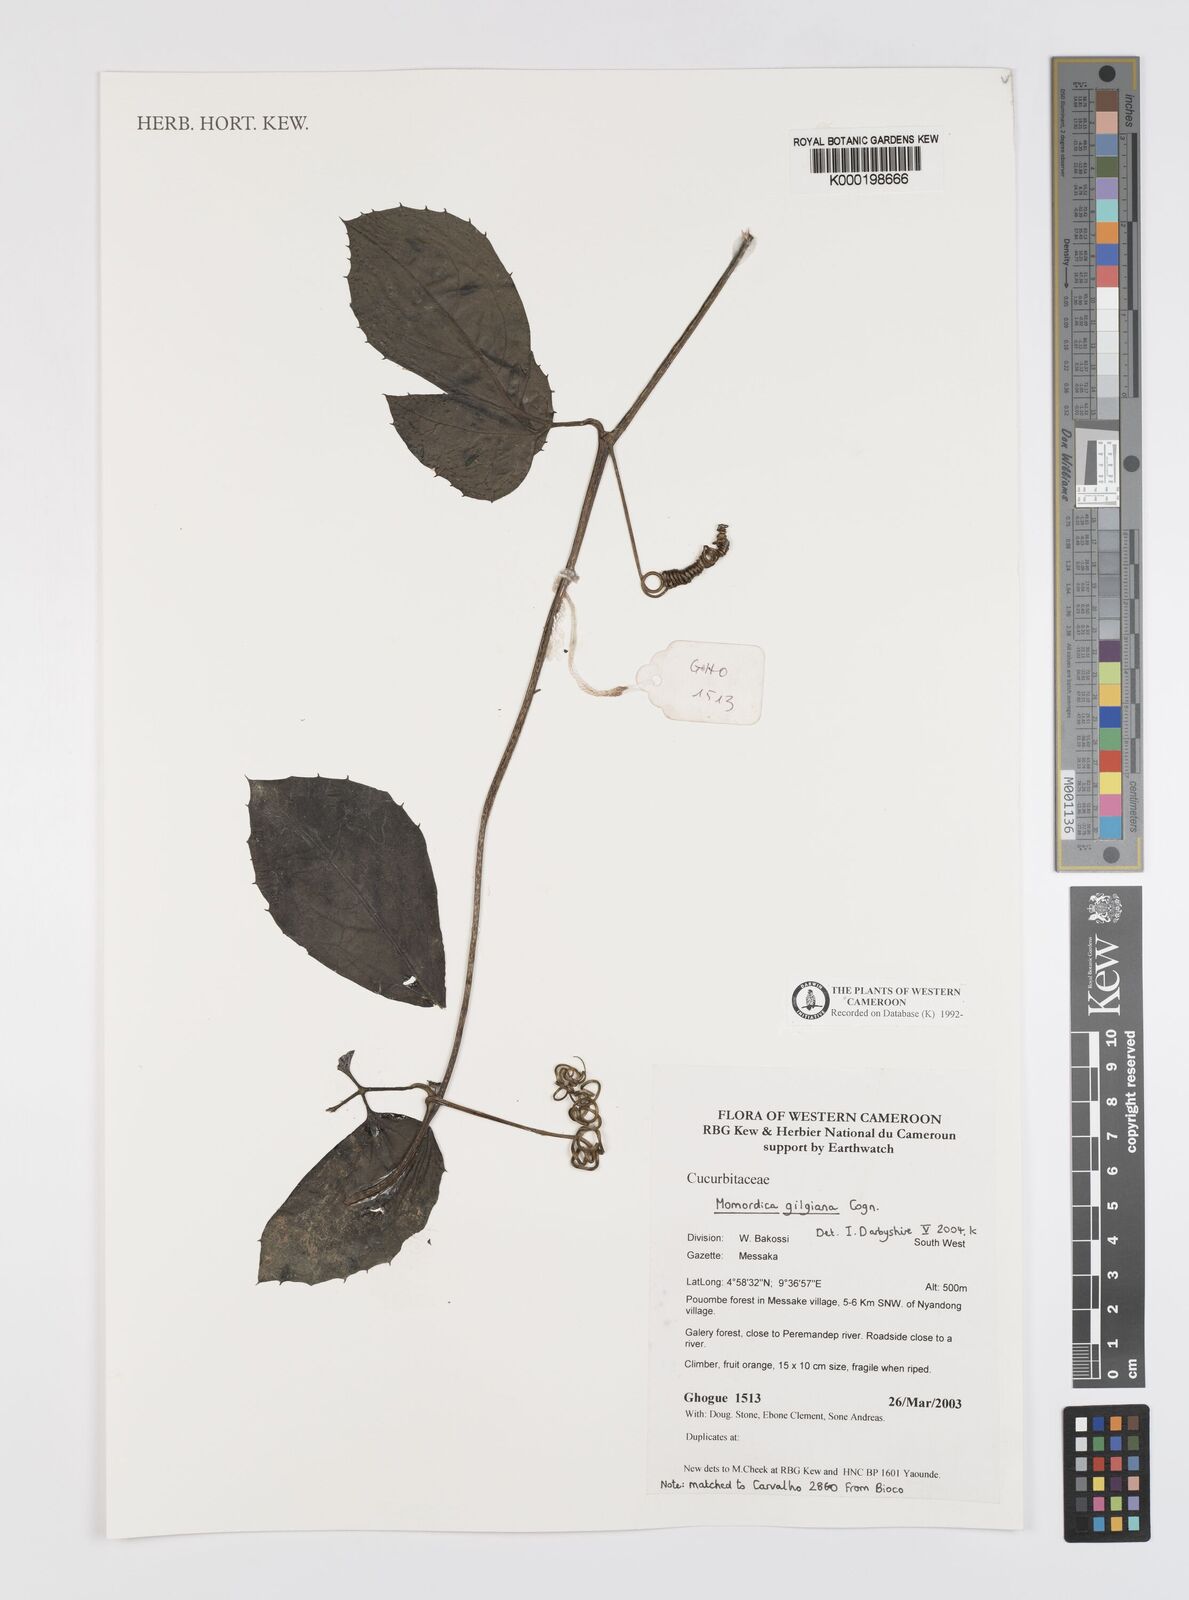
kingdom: Plantae
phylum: Tracheophyta
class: Magnoliopsida
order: Cucurbitales
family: Cucurbitaceae
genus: Momordica
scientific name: Momordica gilgiana
